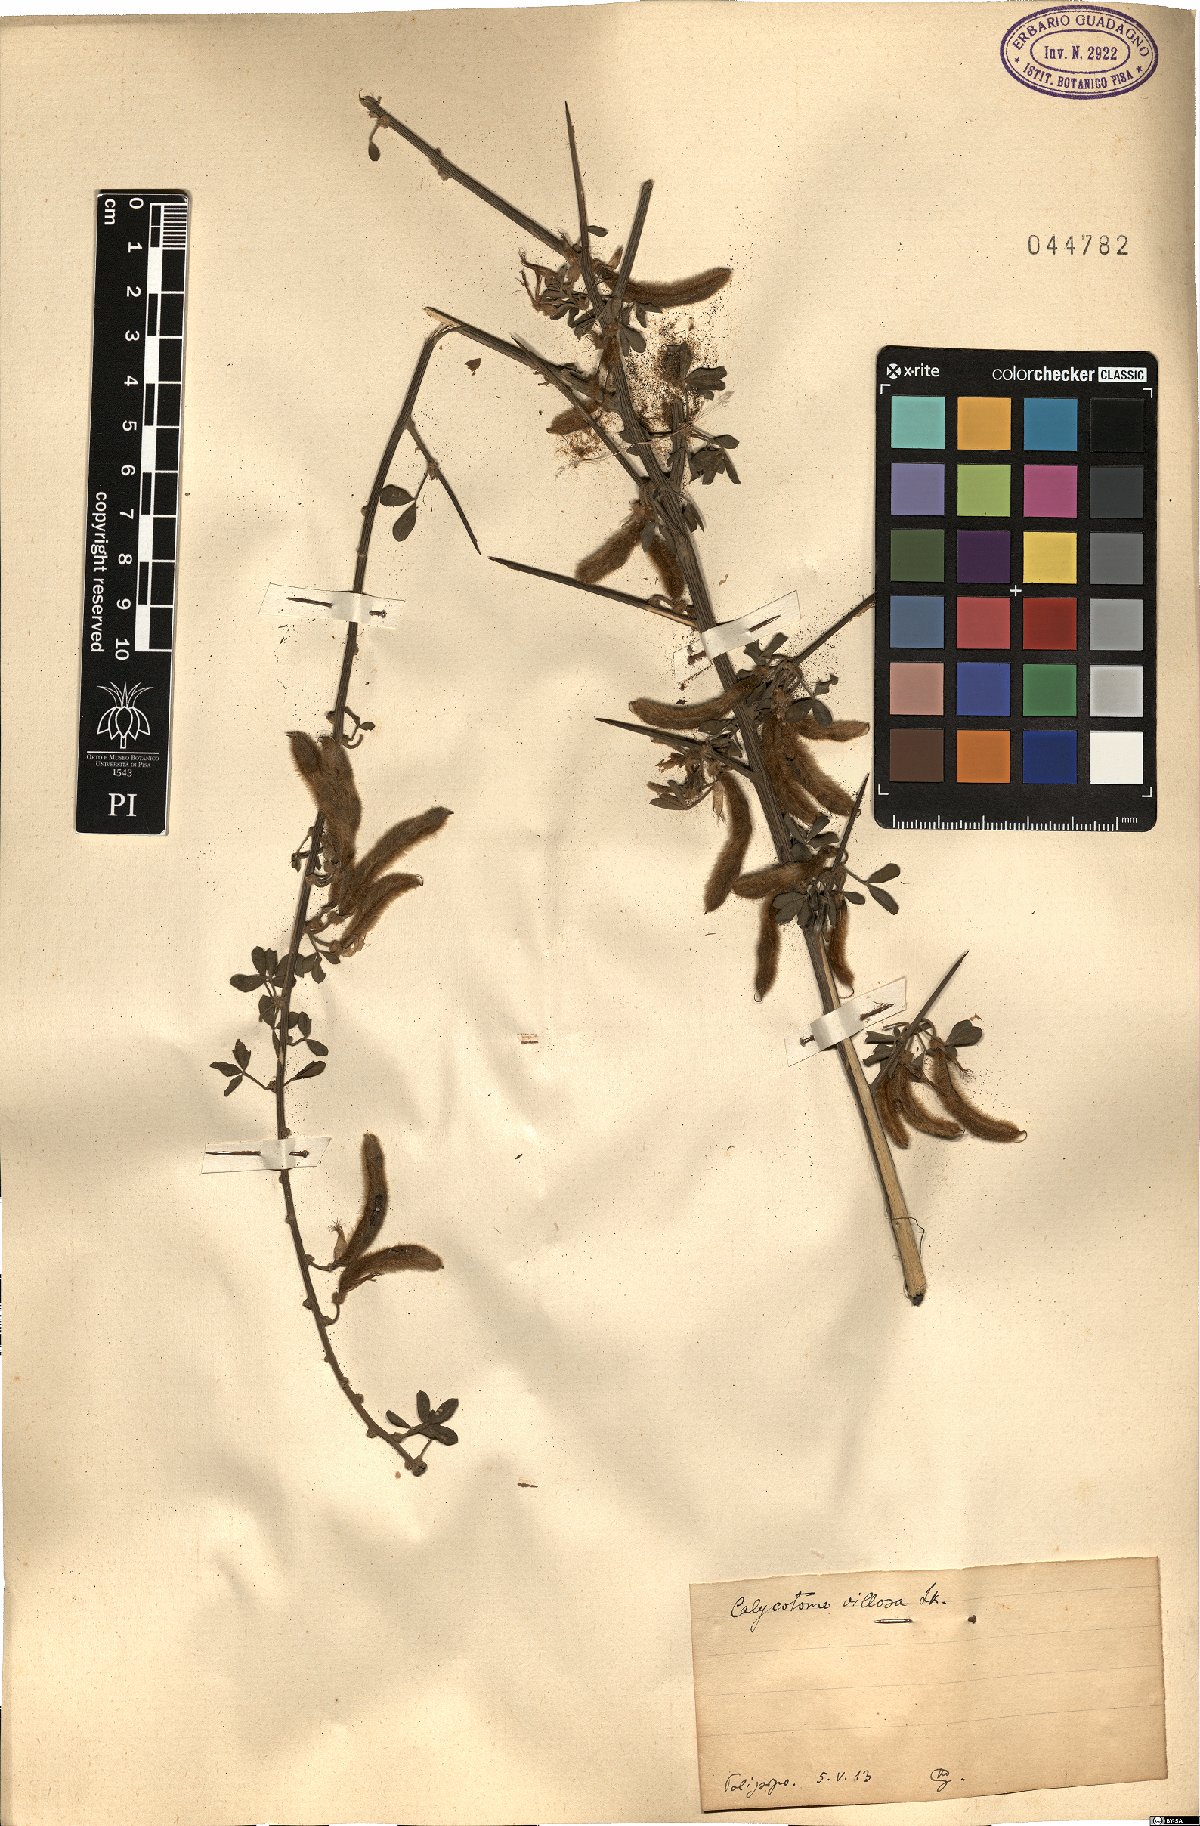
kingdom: Plantae
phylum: Tracheophyta
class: Magnoliopsida
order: Fabales
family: Fabaceae
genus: Calicotome
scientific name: Calicotome villosa
